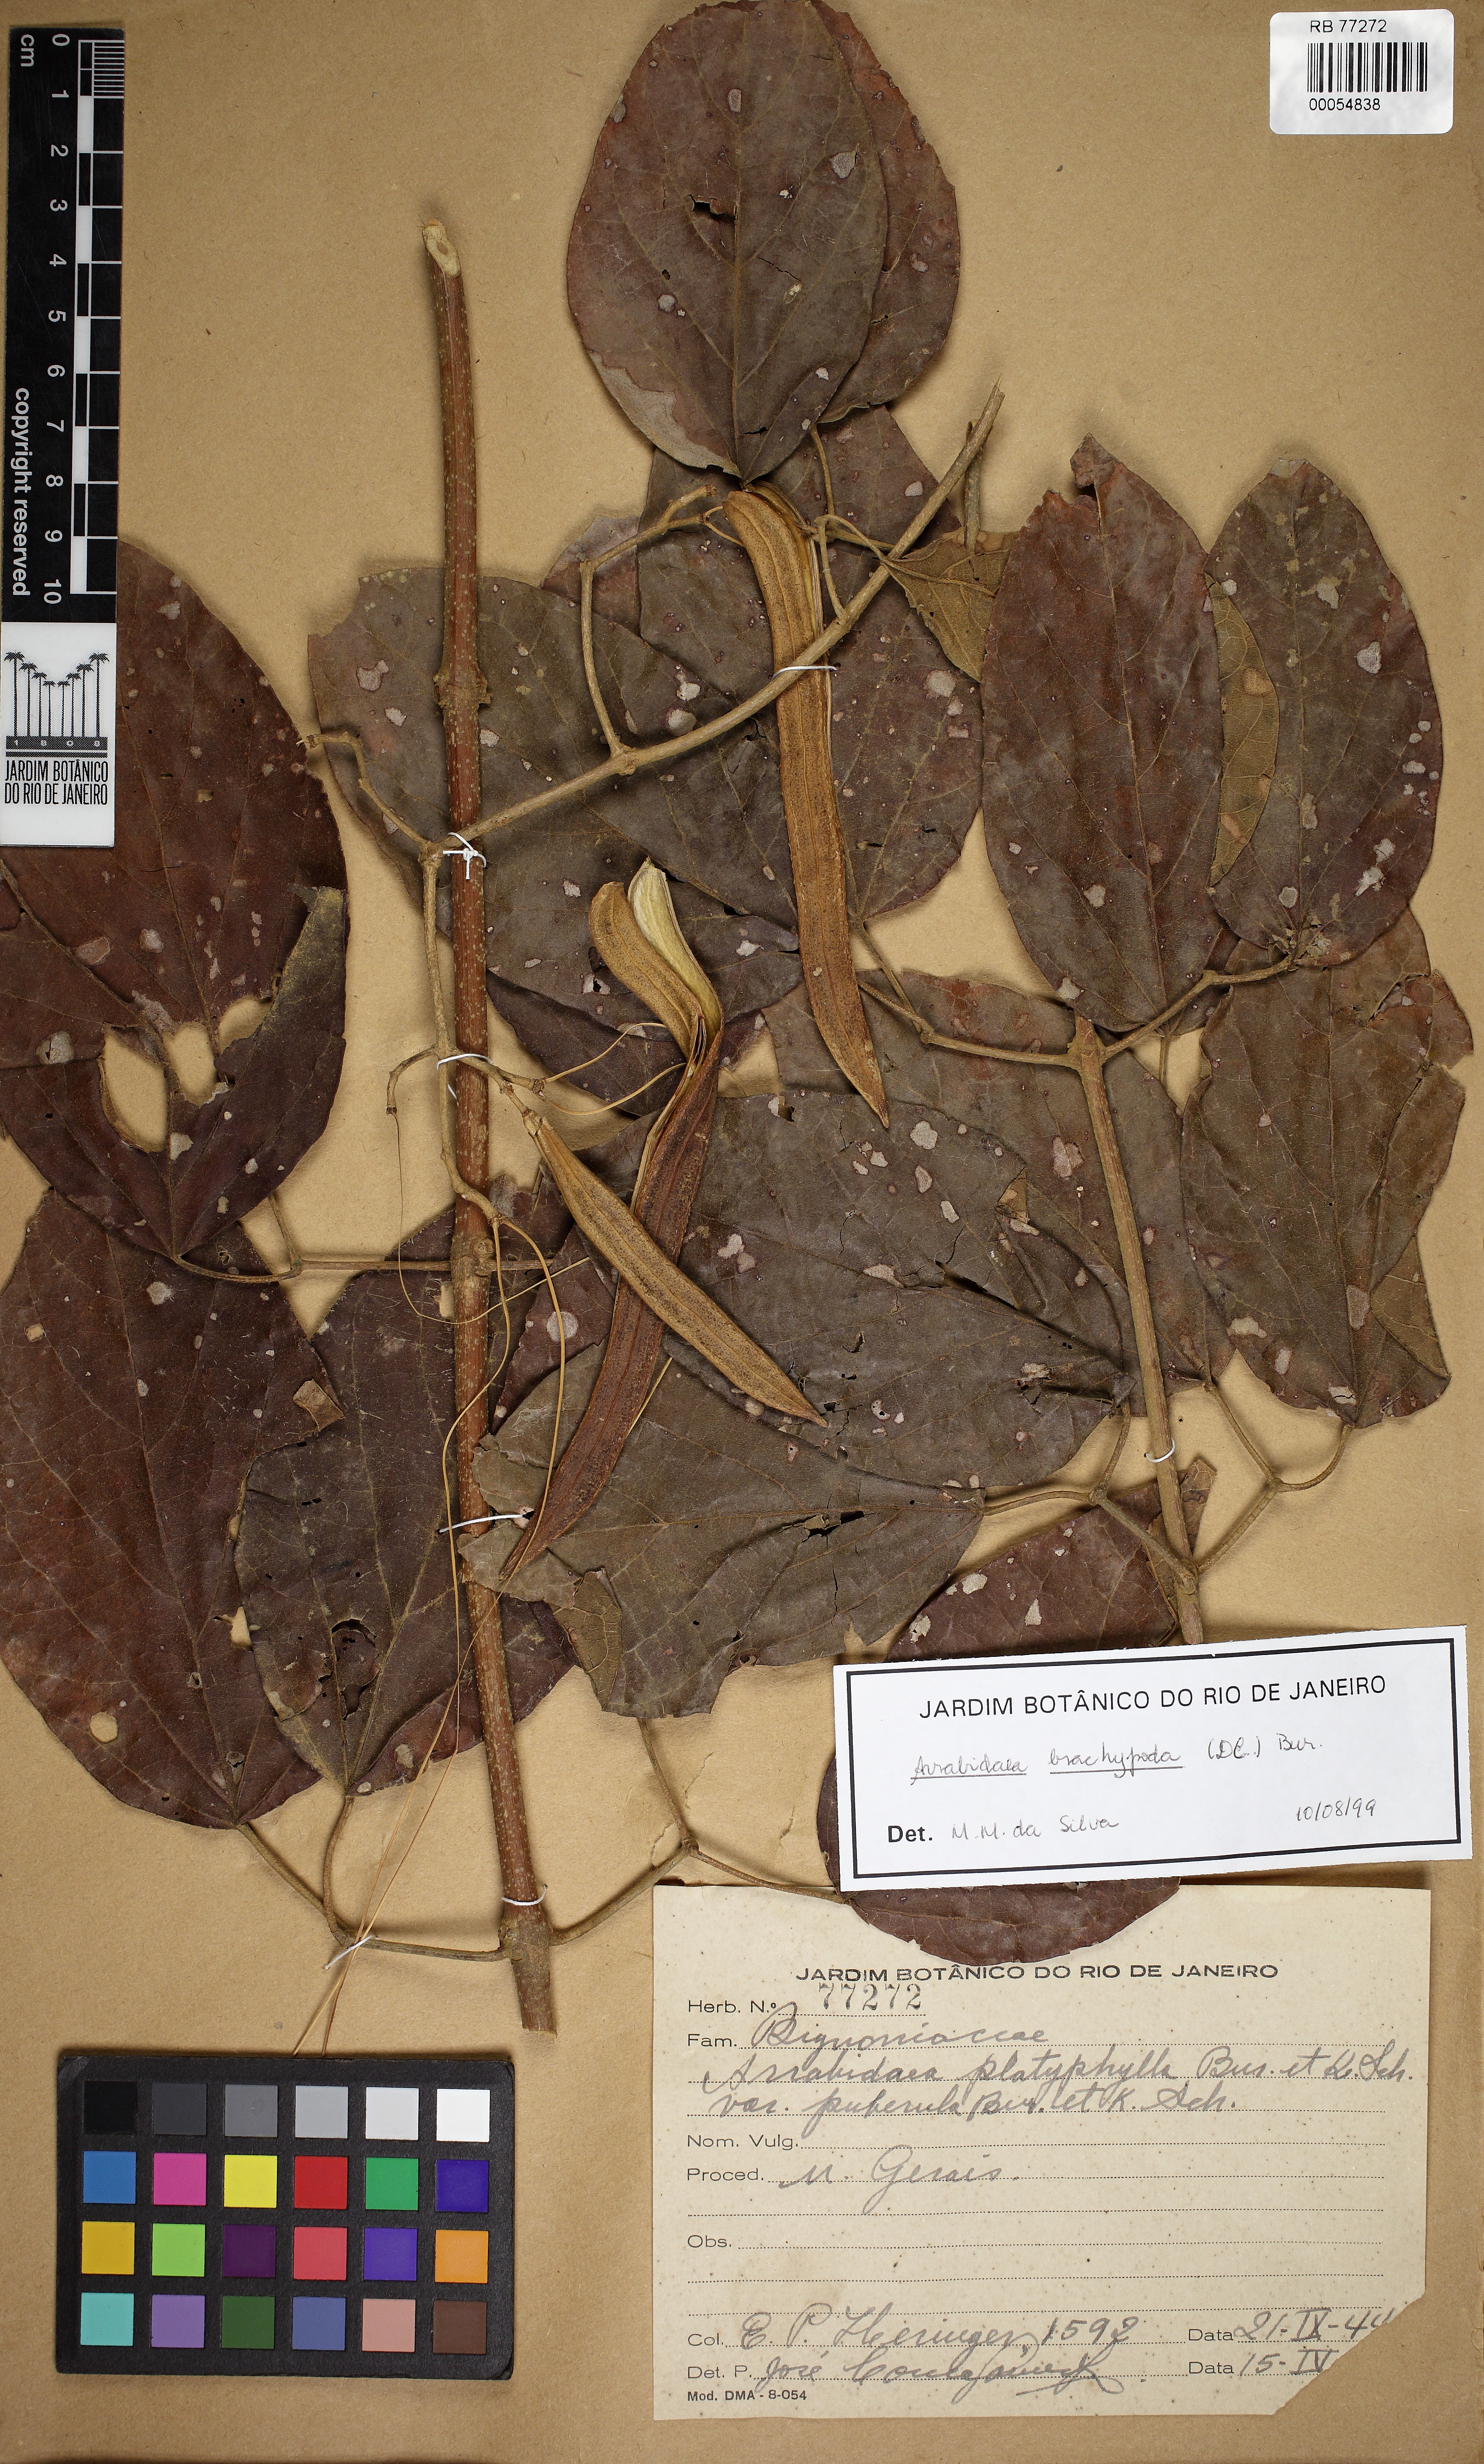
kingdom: Plantae
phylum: Tracheophyta
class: Magnoliopsida
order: Lamiales
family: Bignoniaceae
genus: Fridericia
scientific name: Fridericia platyphylla
